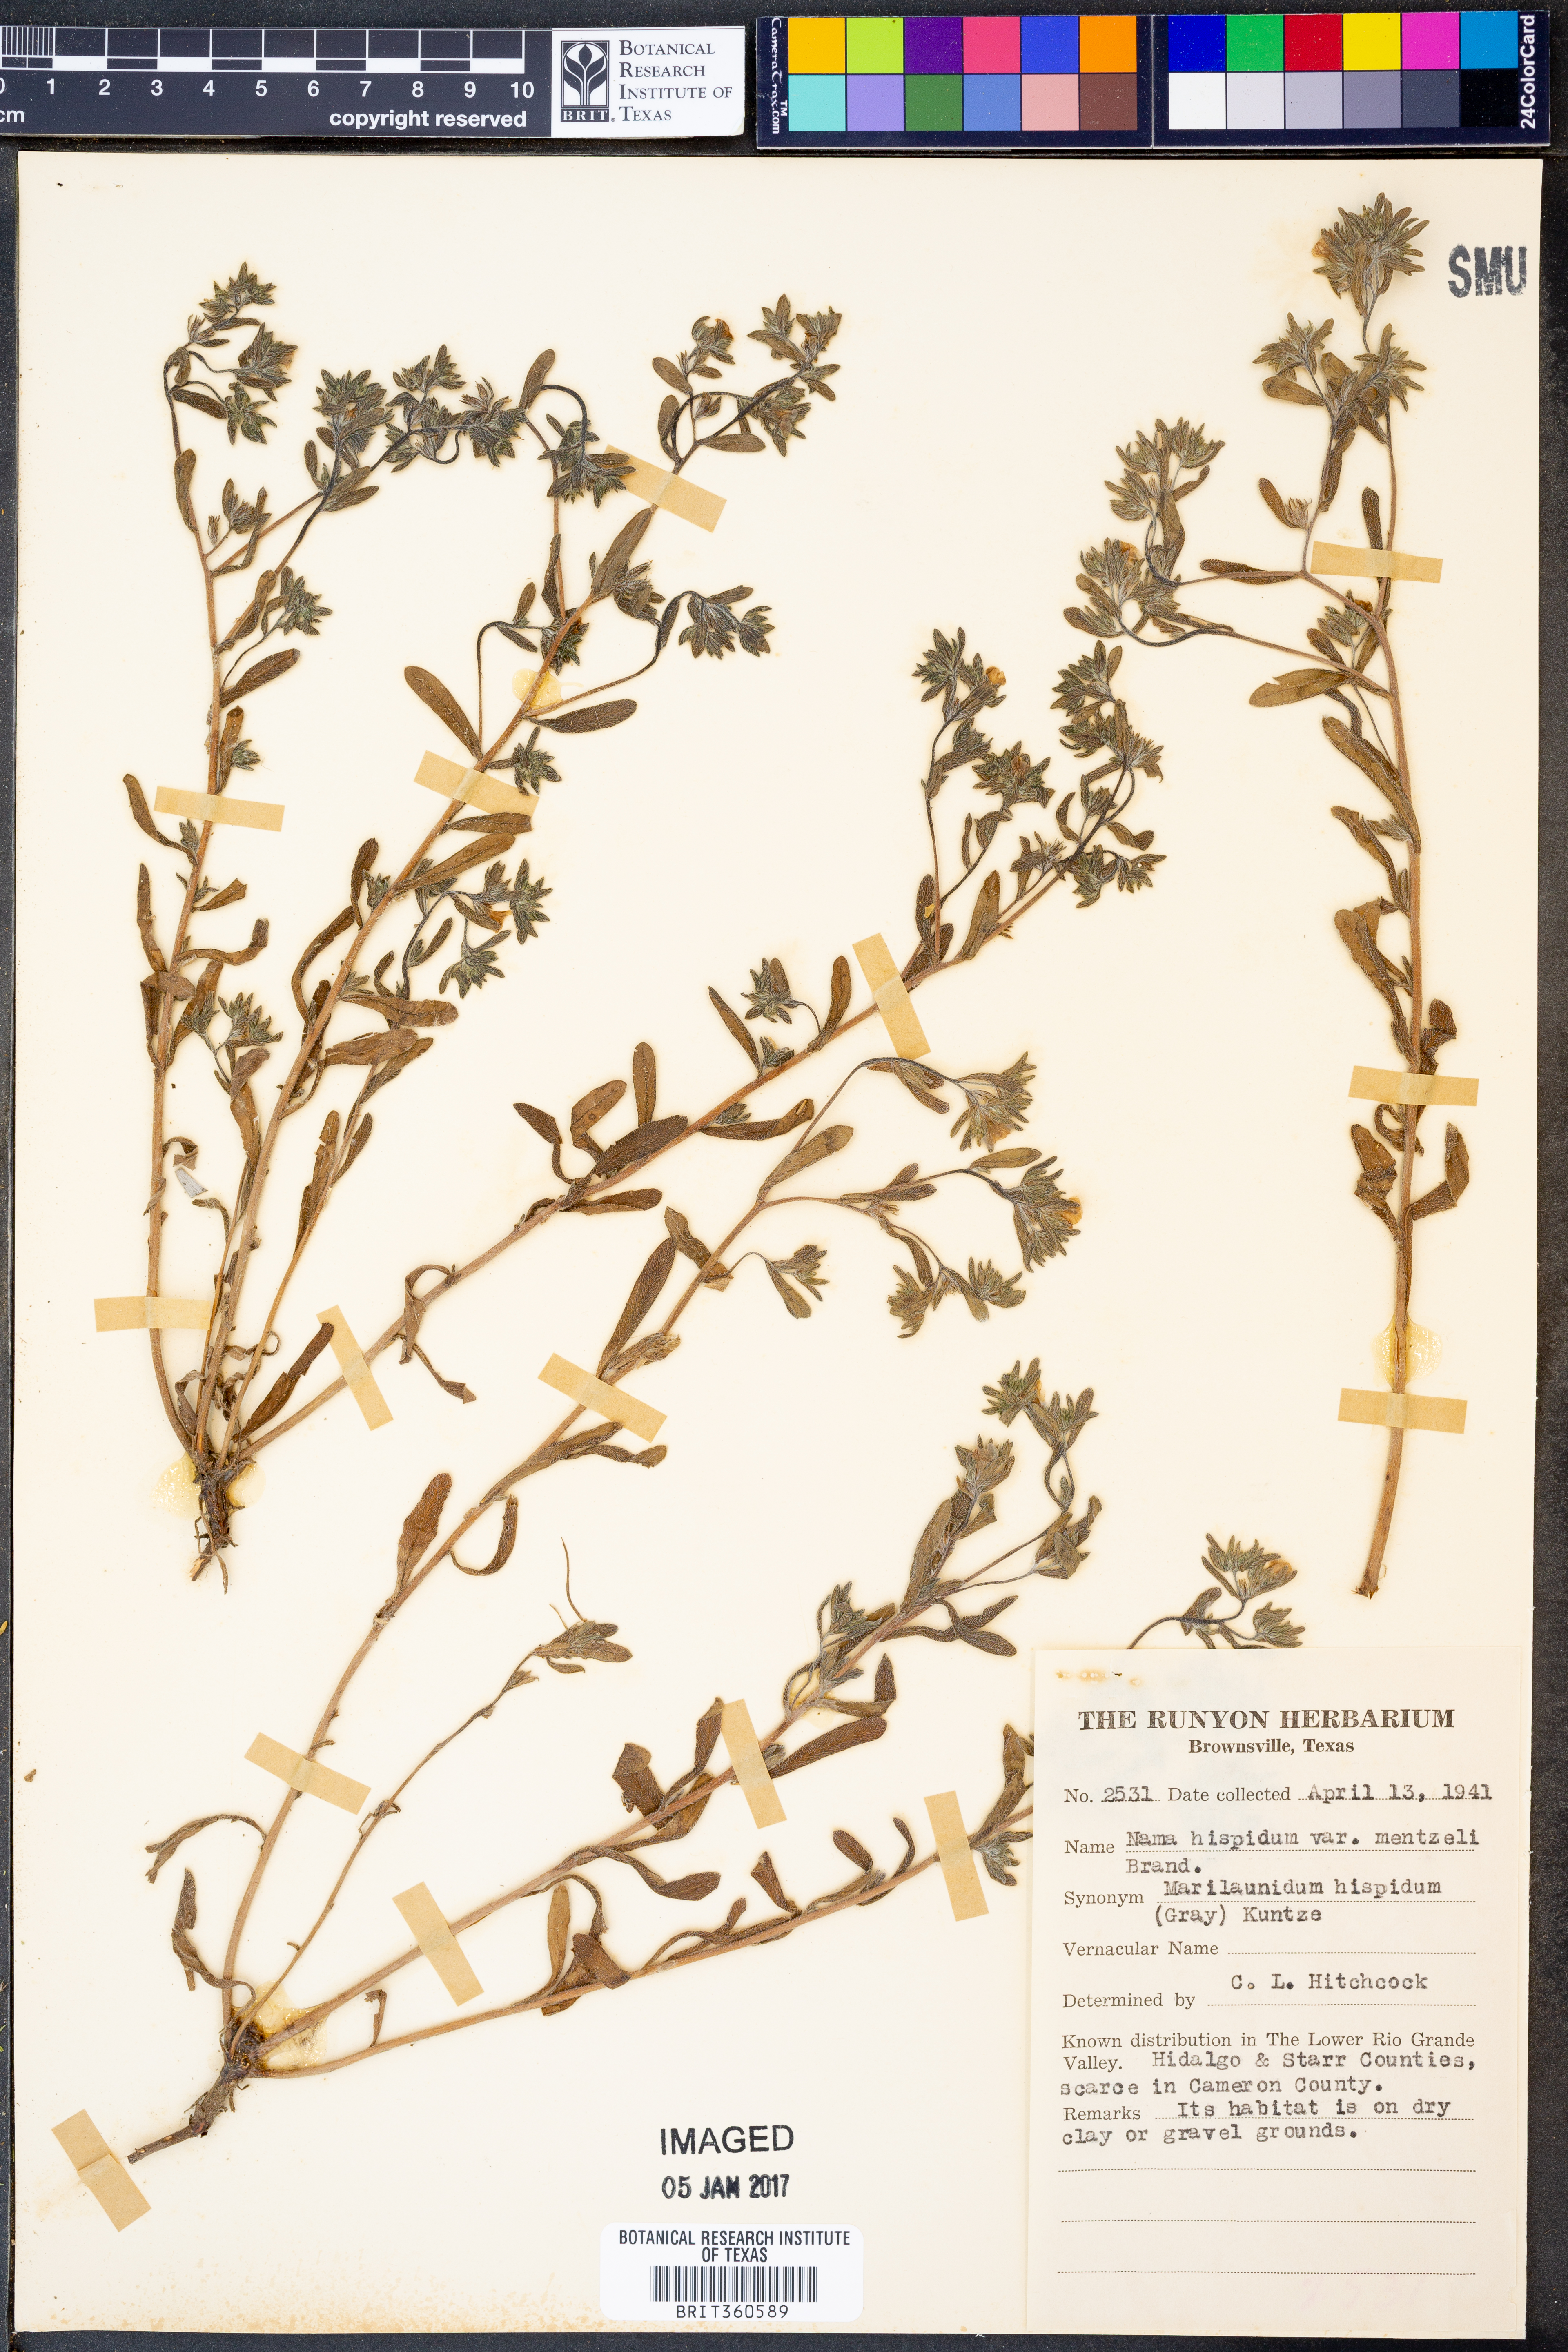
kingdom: Plantae
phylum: Tracheophyta
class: Magnoliopsida
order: Boraginales
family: Namaceae
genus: Nama
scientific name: Nama hispida
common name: Bristly nama
